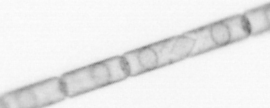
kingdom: Chromista
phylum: Ochrophyta
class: Bacillariophyceae
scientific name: Bacillariophyceae
